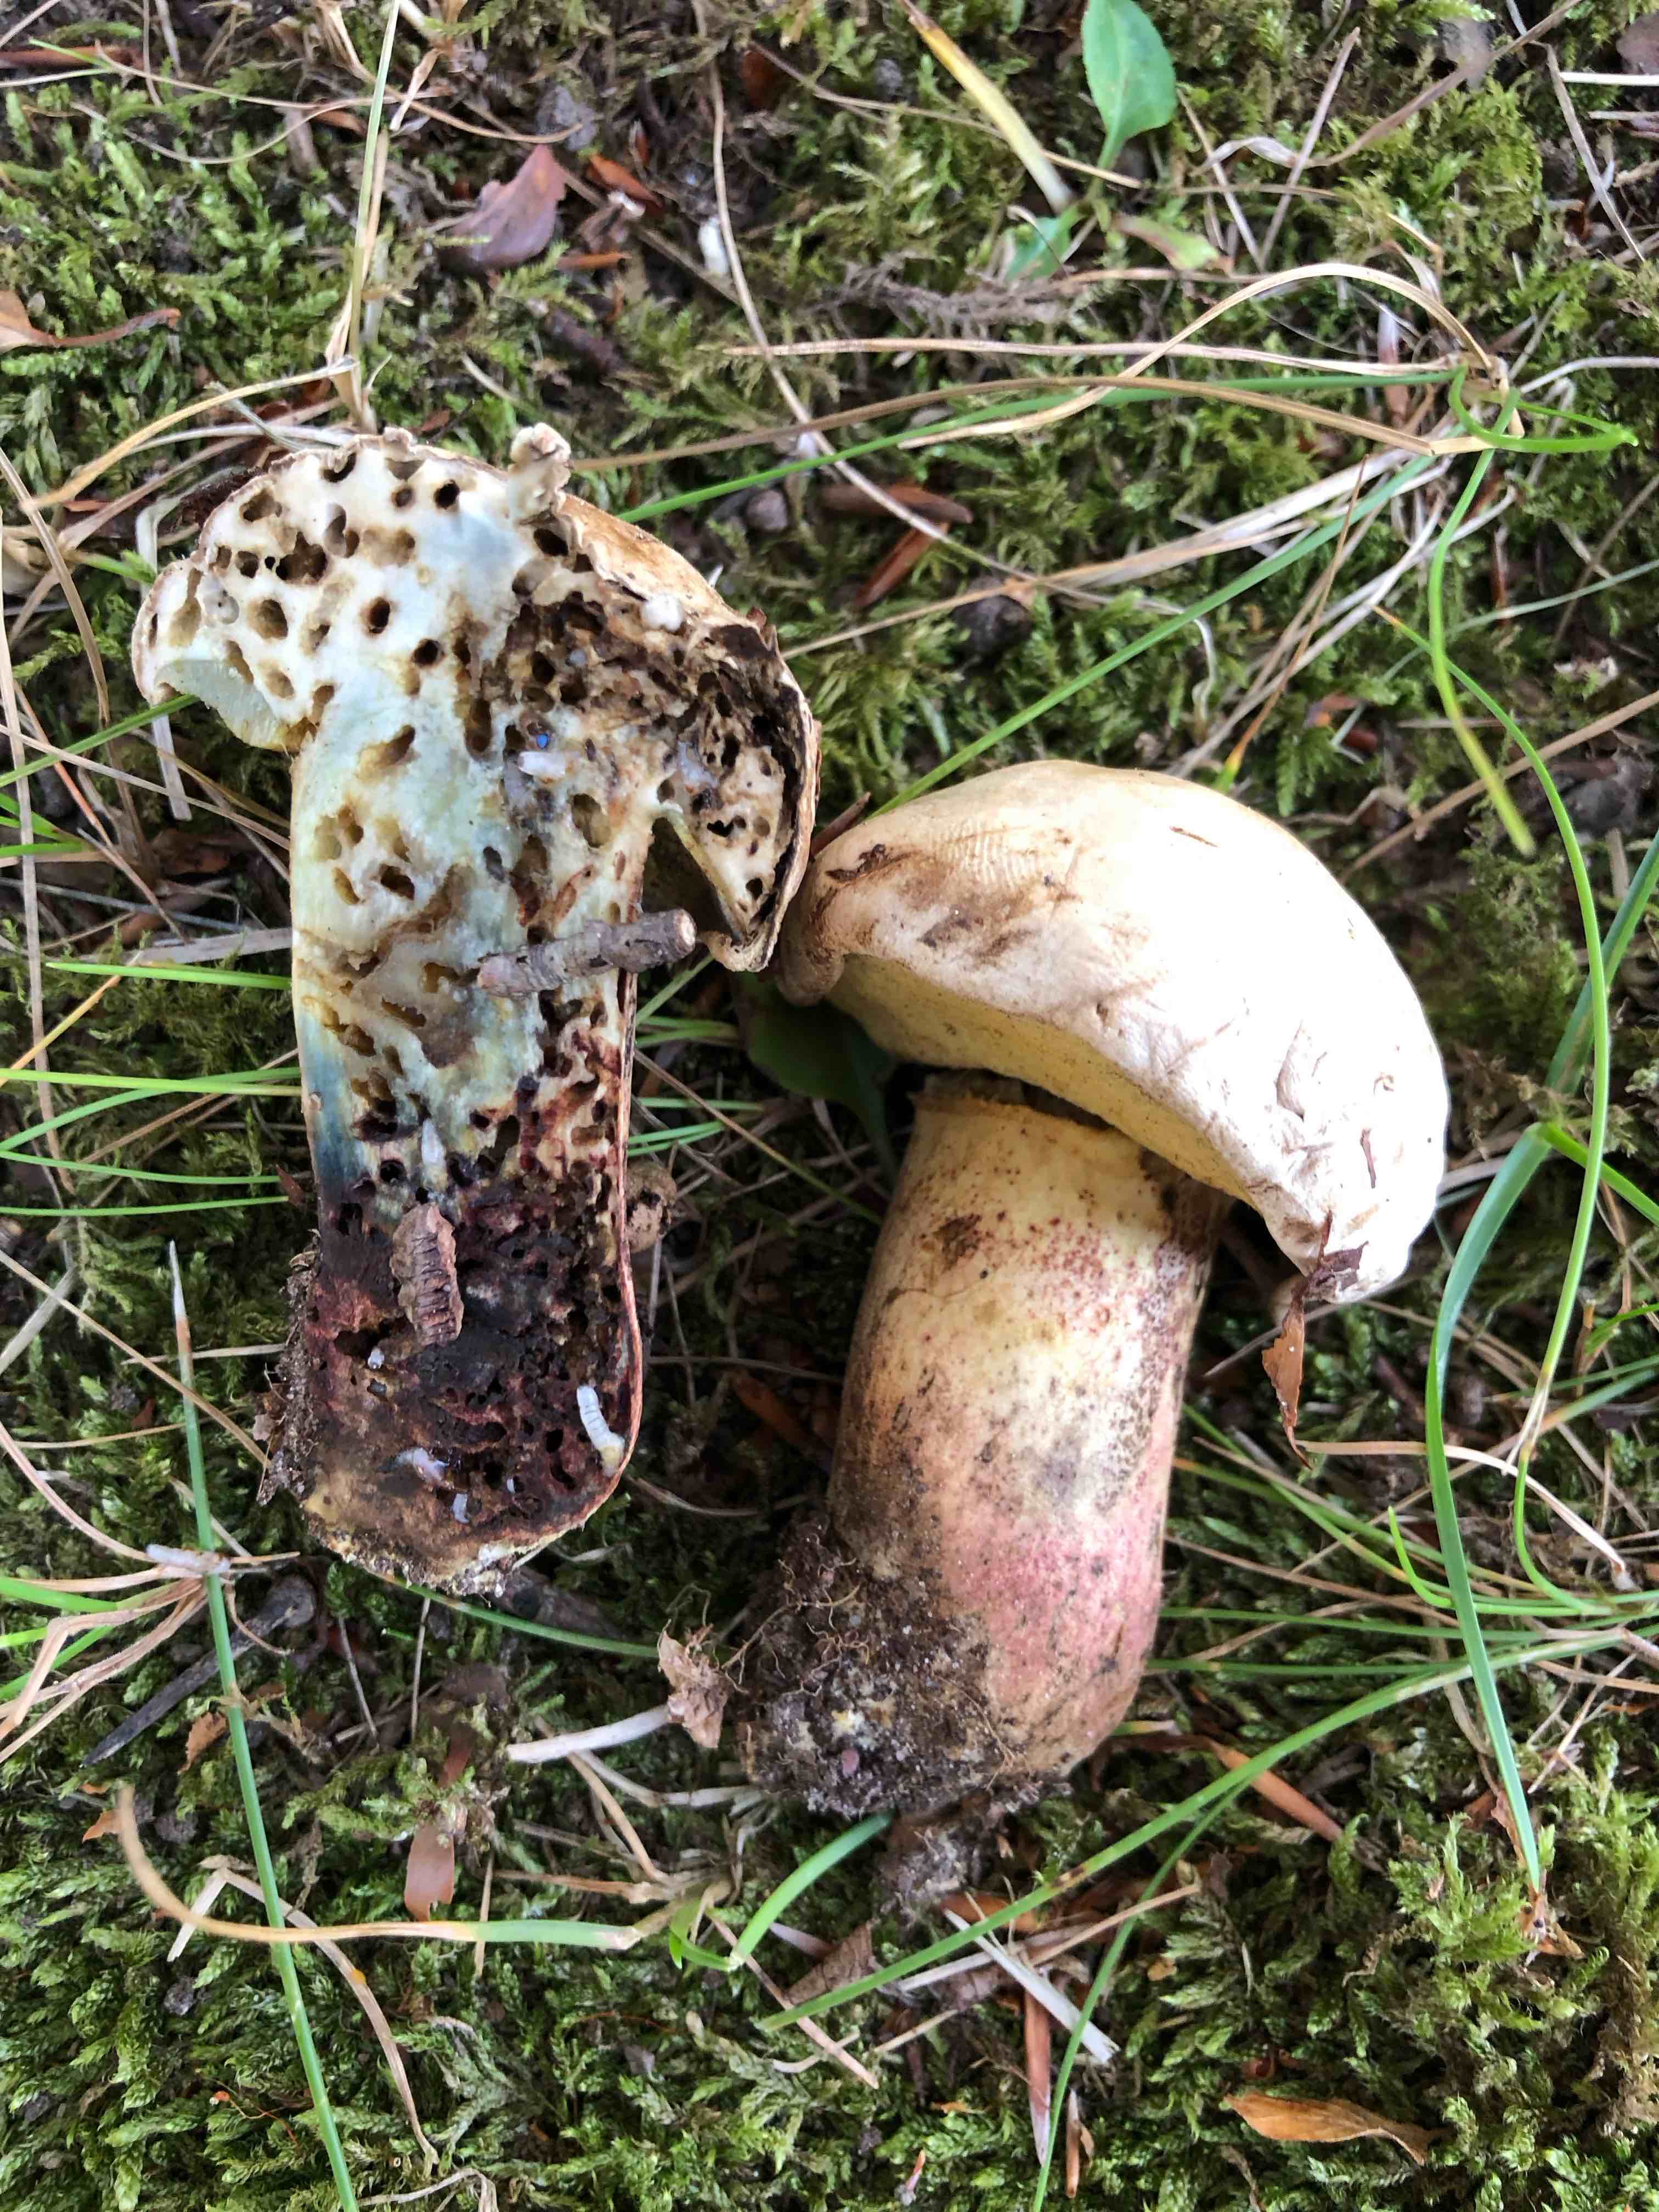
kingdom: Fungi
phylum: Basidiomycota
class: Agaricomycetes
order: Boletales
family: Boletaceae
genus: Caloboletus
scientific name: Caloboletus calopus
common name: skønfodet rørhat
